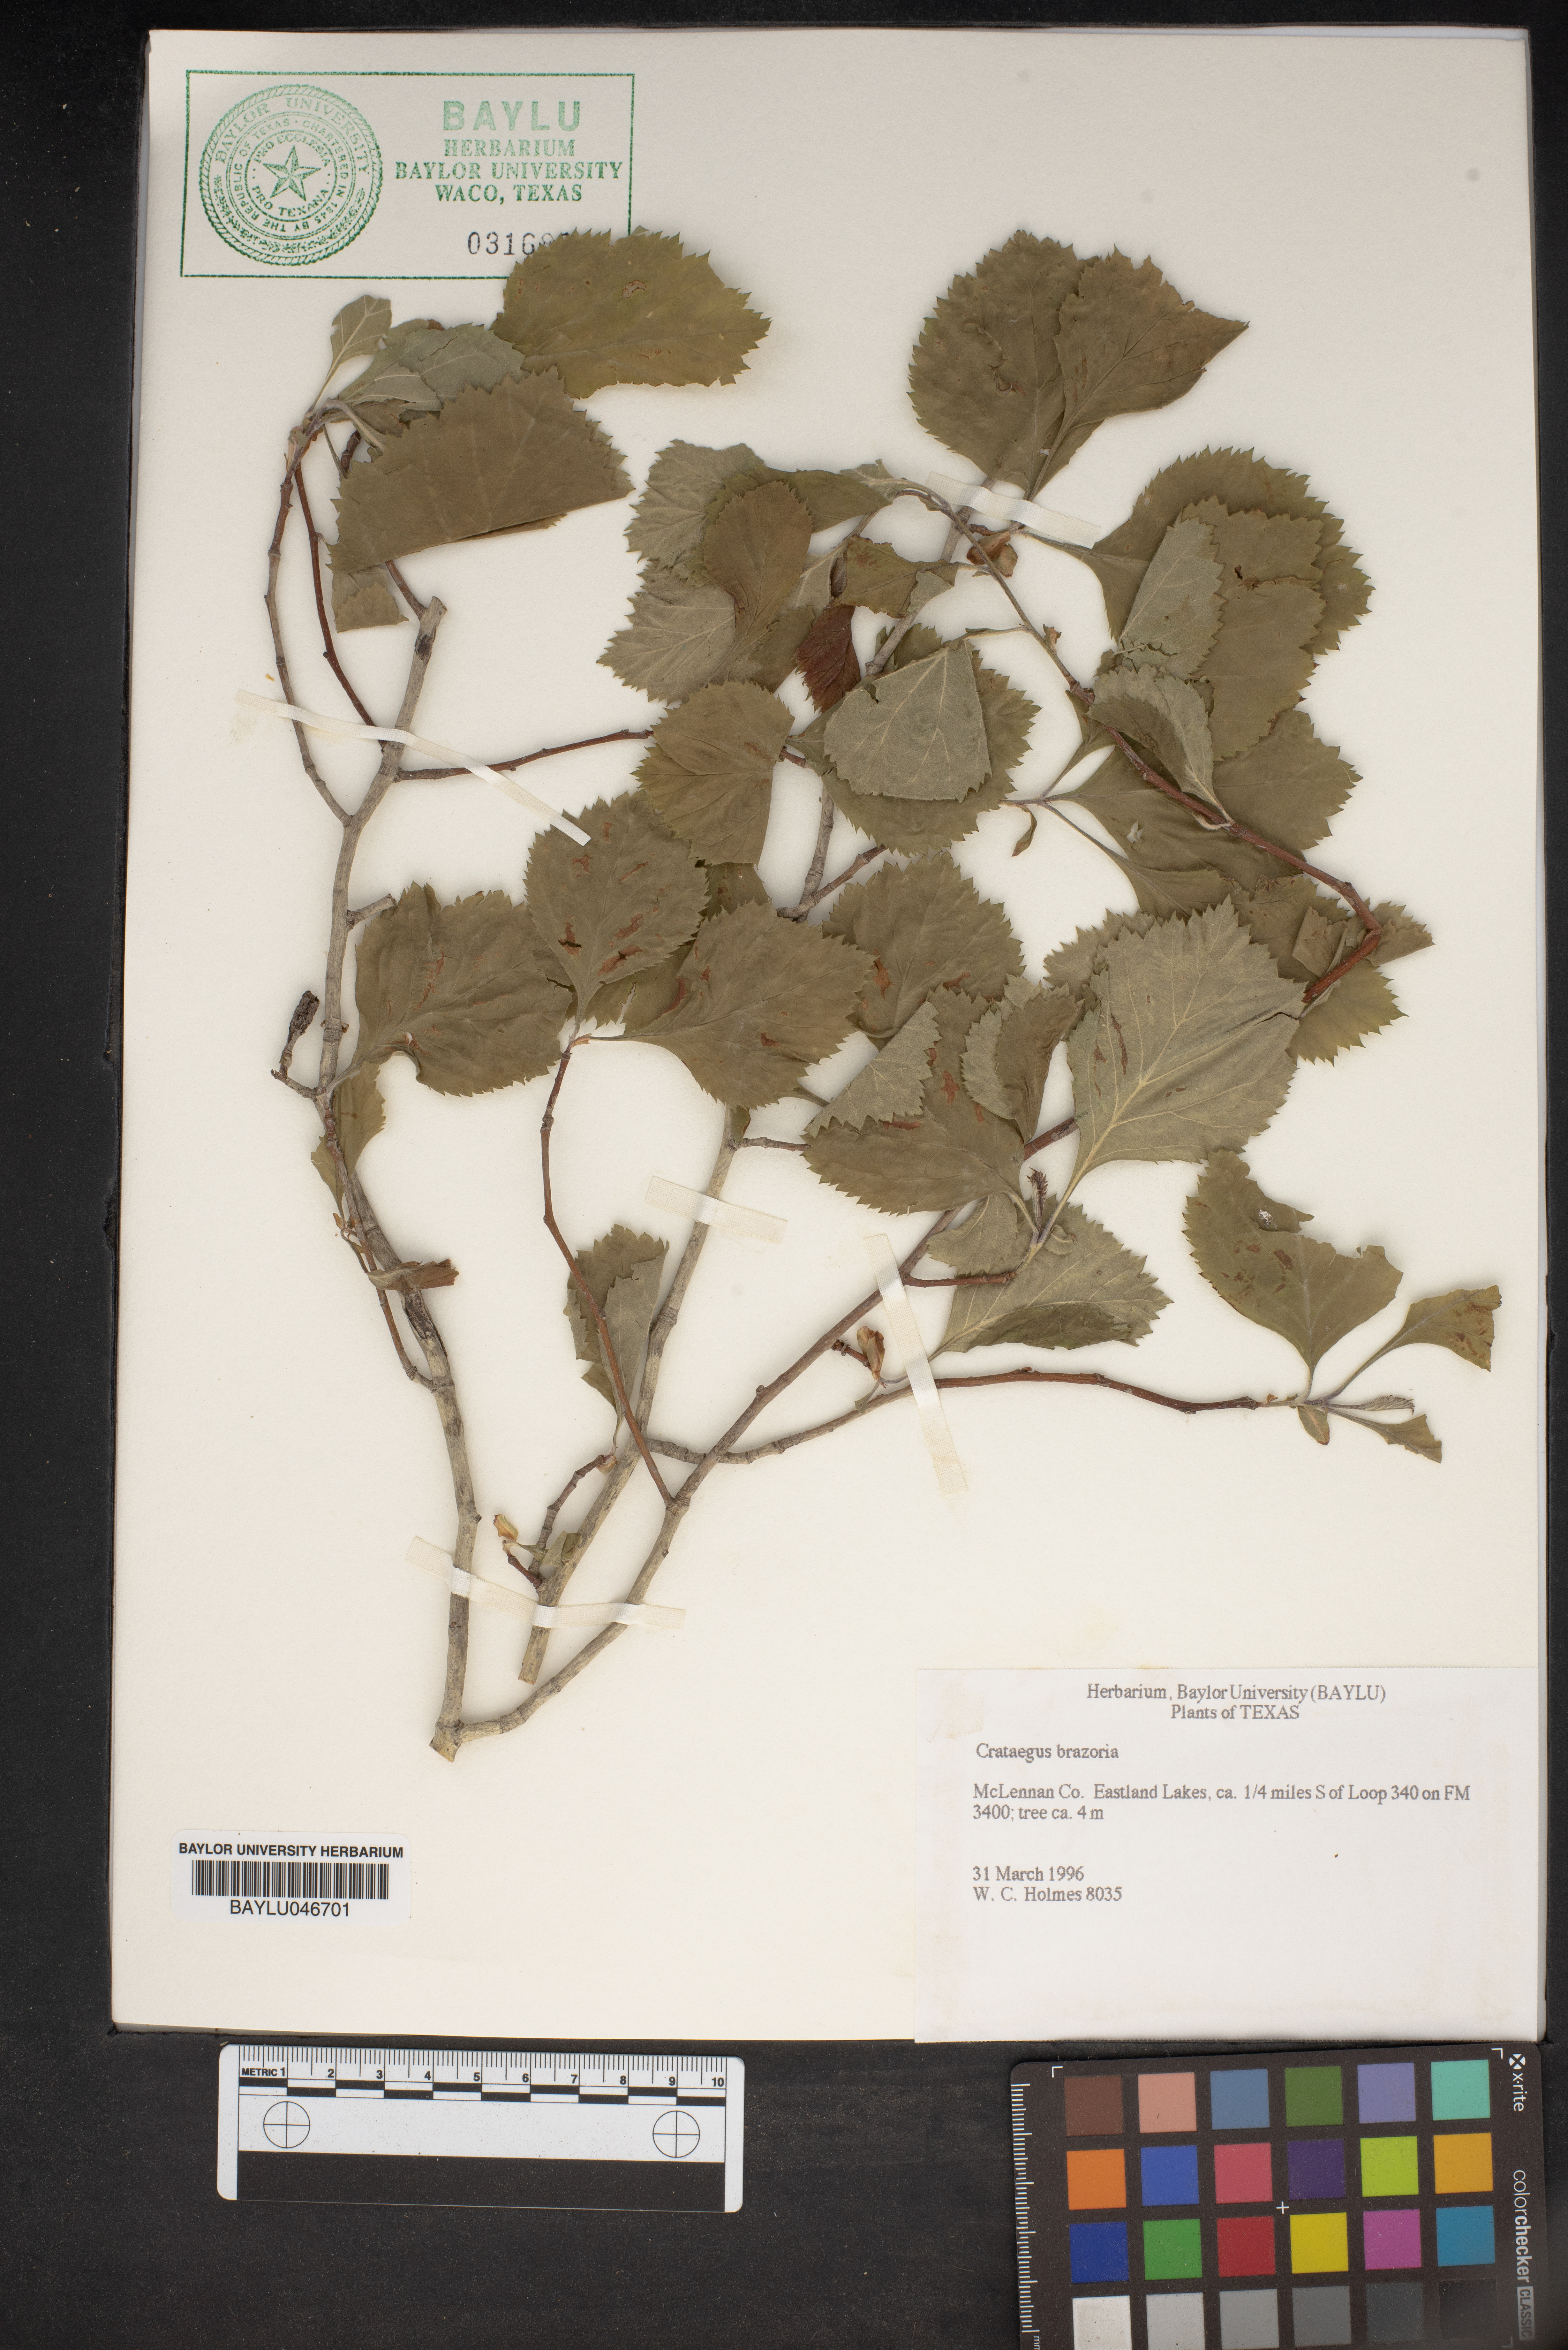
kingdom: Plantae
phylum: Tracheophyta
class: Magnoliopsida
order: Rosales
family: Rosaceae
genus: Crataegus
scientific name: Crataegus brazoria
